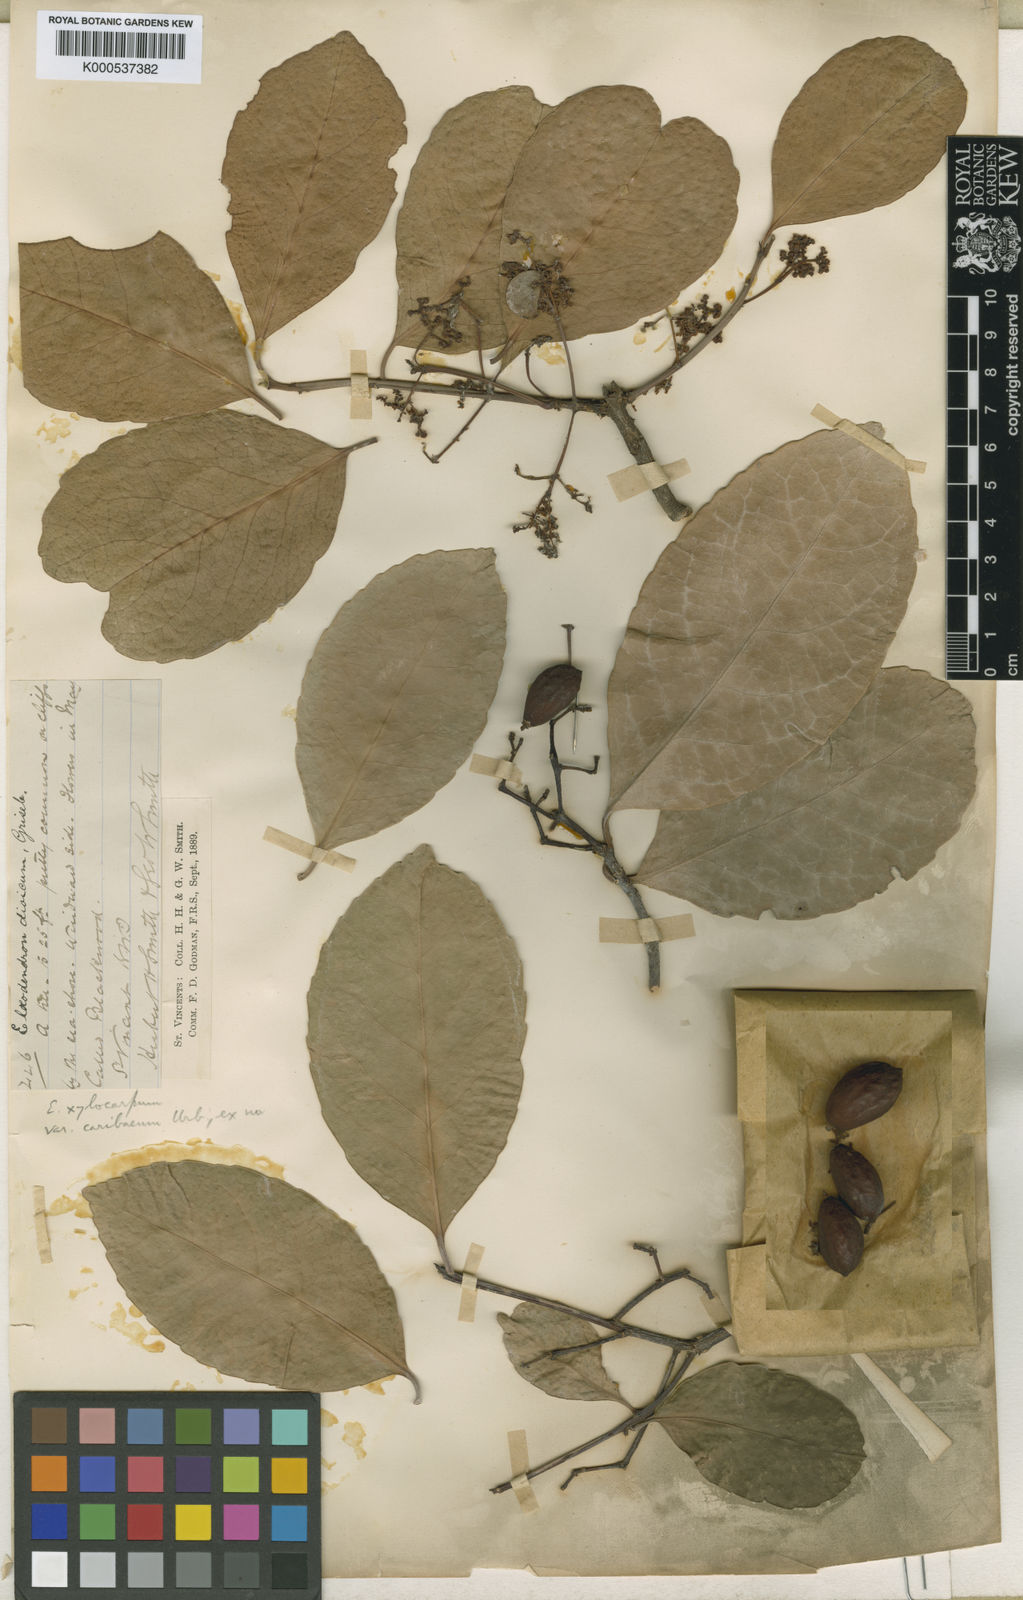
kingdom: Plantae
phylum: Tracheophyta
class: Magnoliopsida
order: Celastrales
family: Celastraceae
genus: Elaeodendron
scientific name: Elaeodendron xylocarpum
